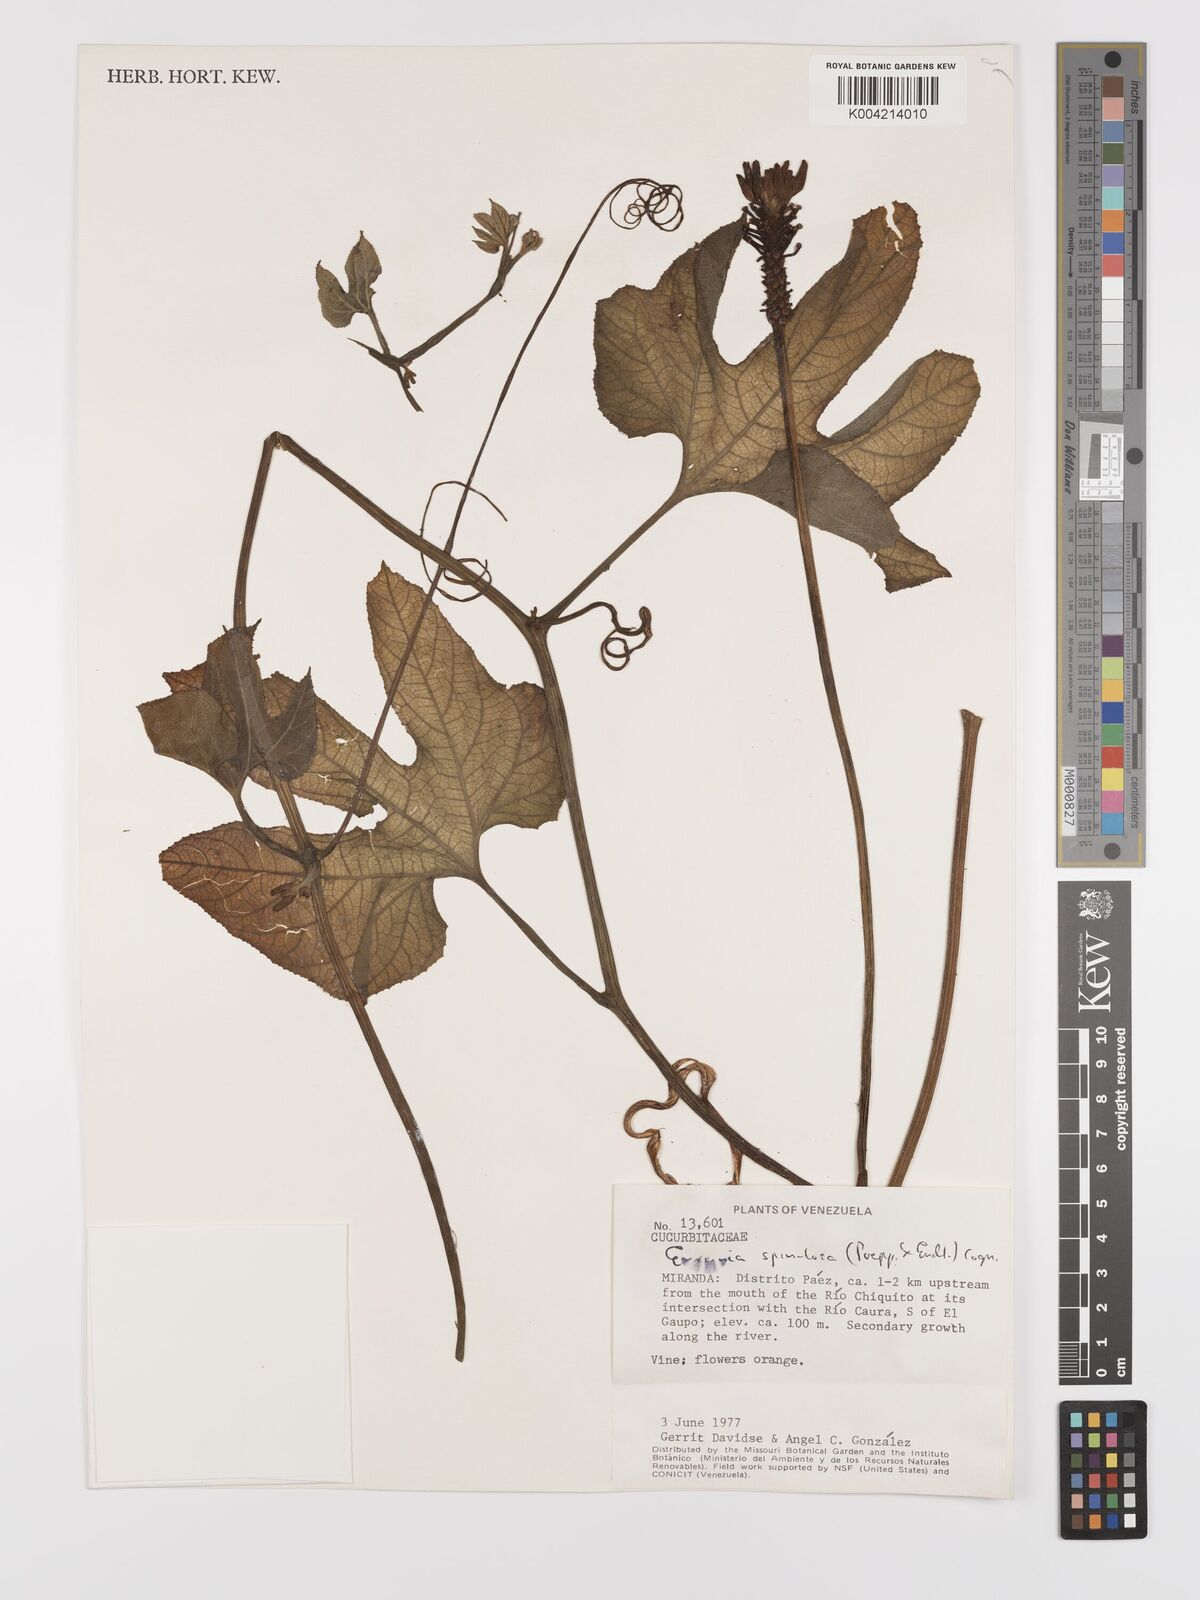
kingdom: Plantae
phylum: Tracheophyta
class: Magnoliopsida
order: Cucurbitales
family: Cucurbitaceae
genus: Gurania
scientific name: Gurania lobata
